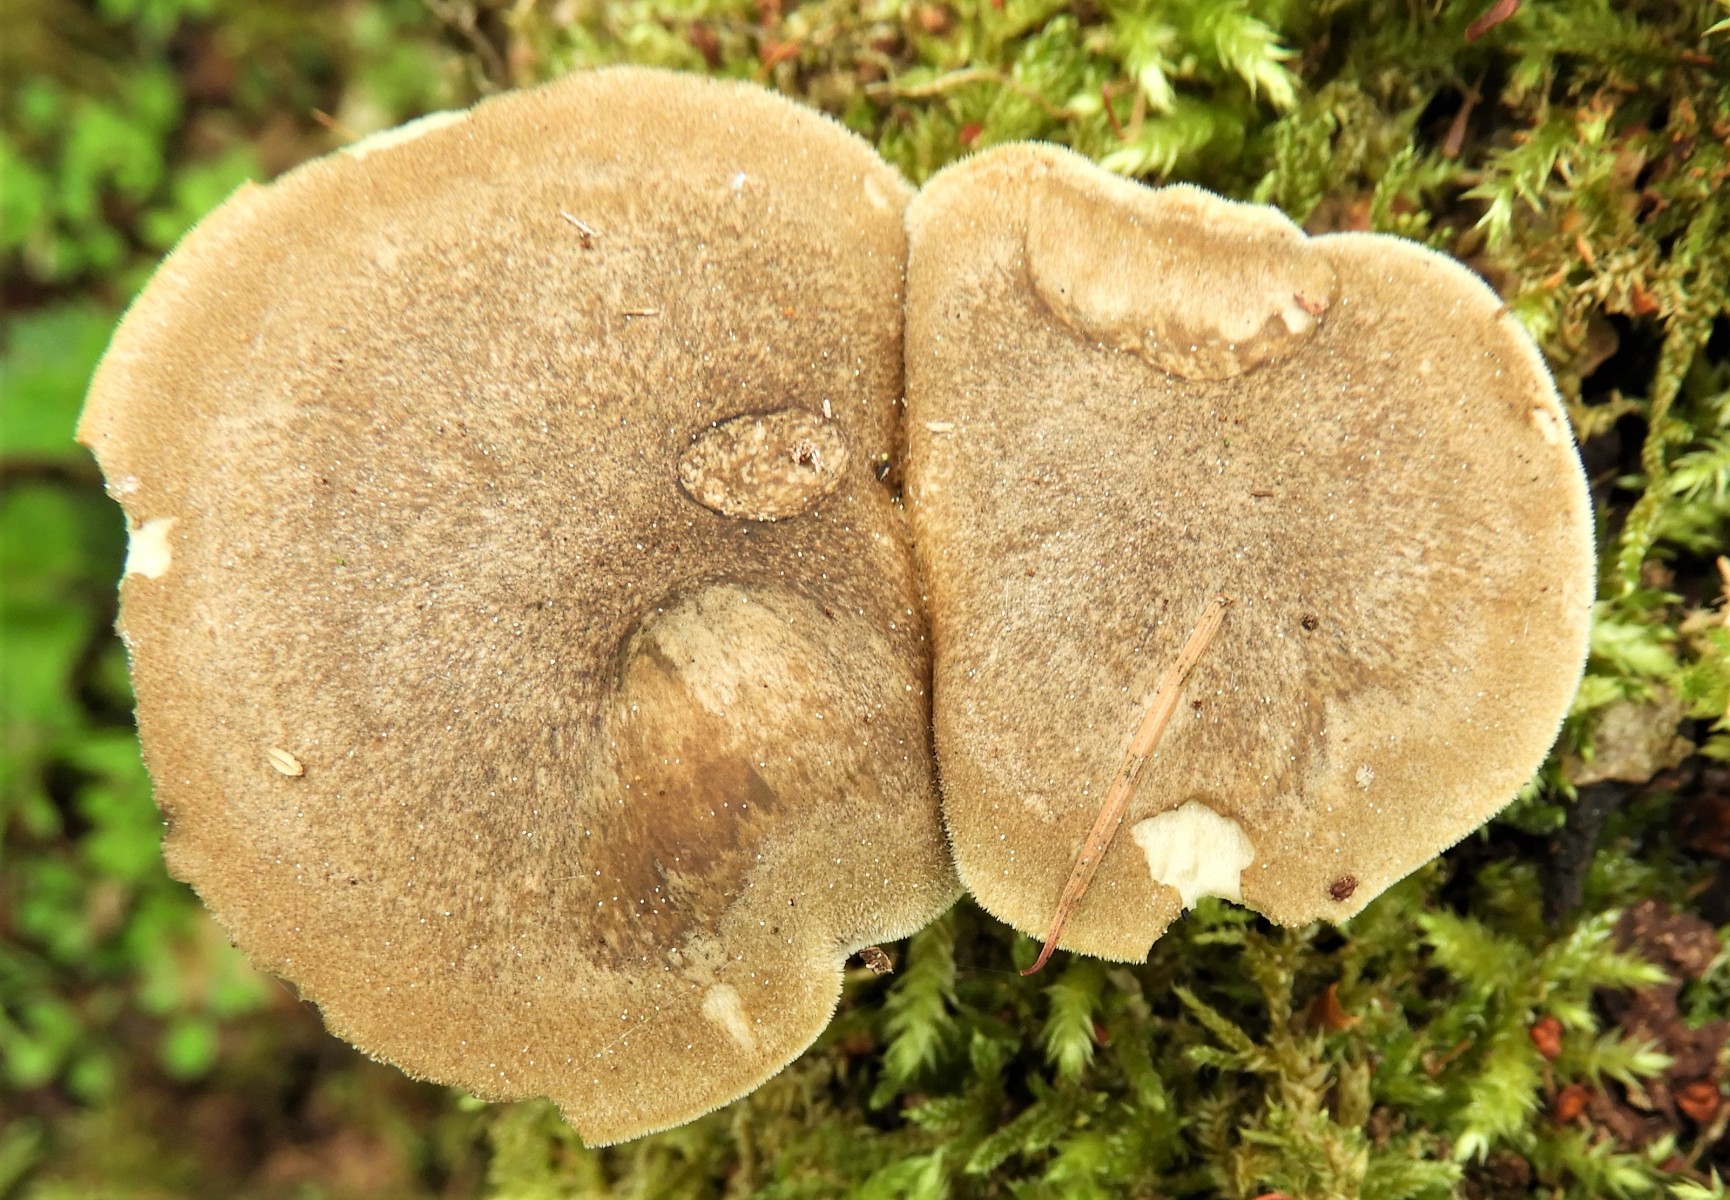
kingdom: Fungi
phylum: Basidiomycota
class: Agaricomycetes
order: Polyporales
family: Polyporaceae
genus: Lentinus
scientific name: Lentinus substrictus
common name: forårs-stilkporesvamp
